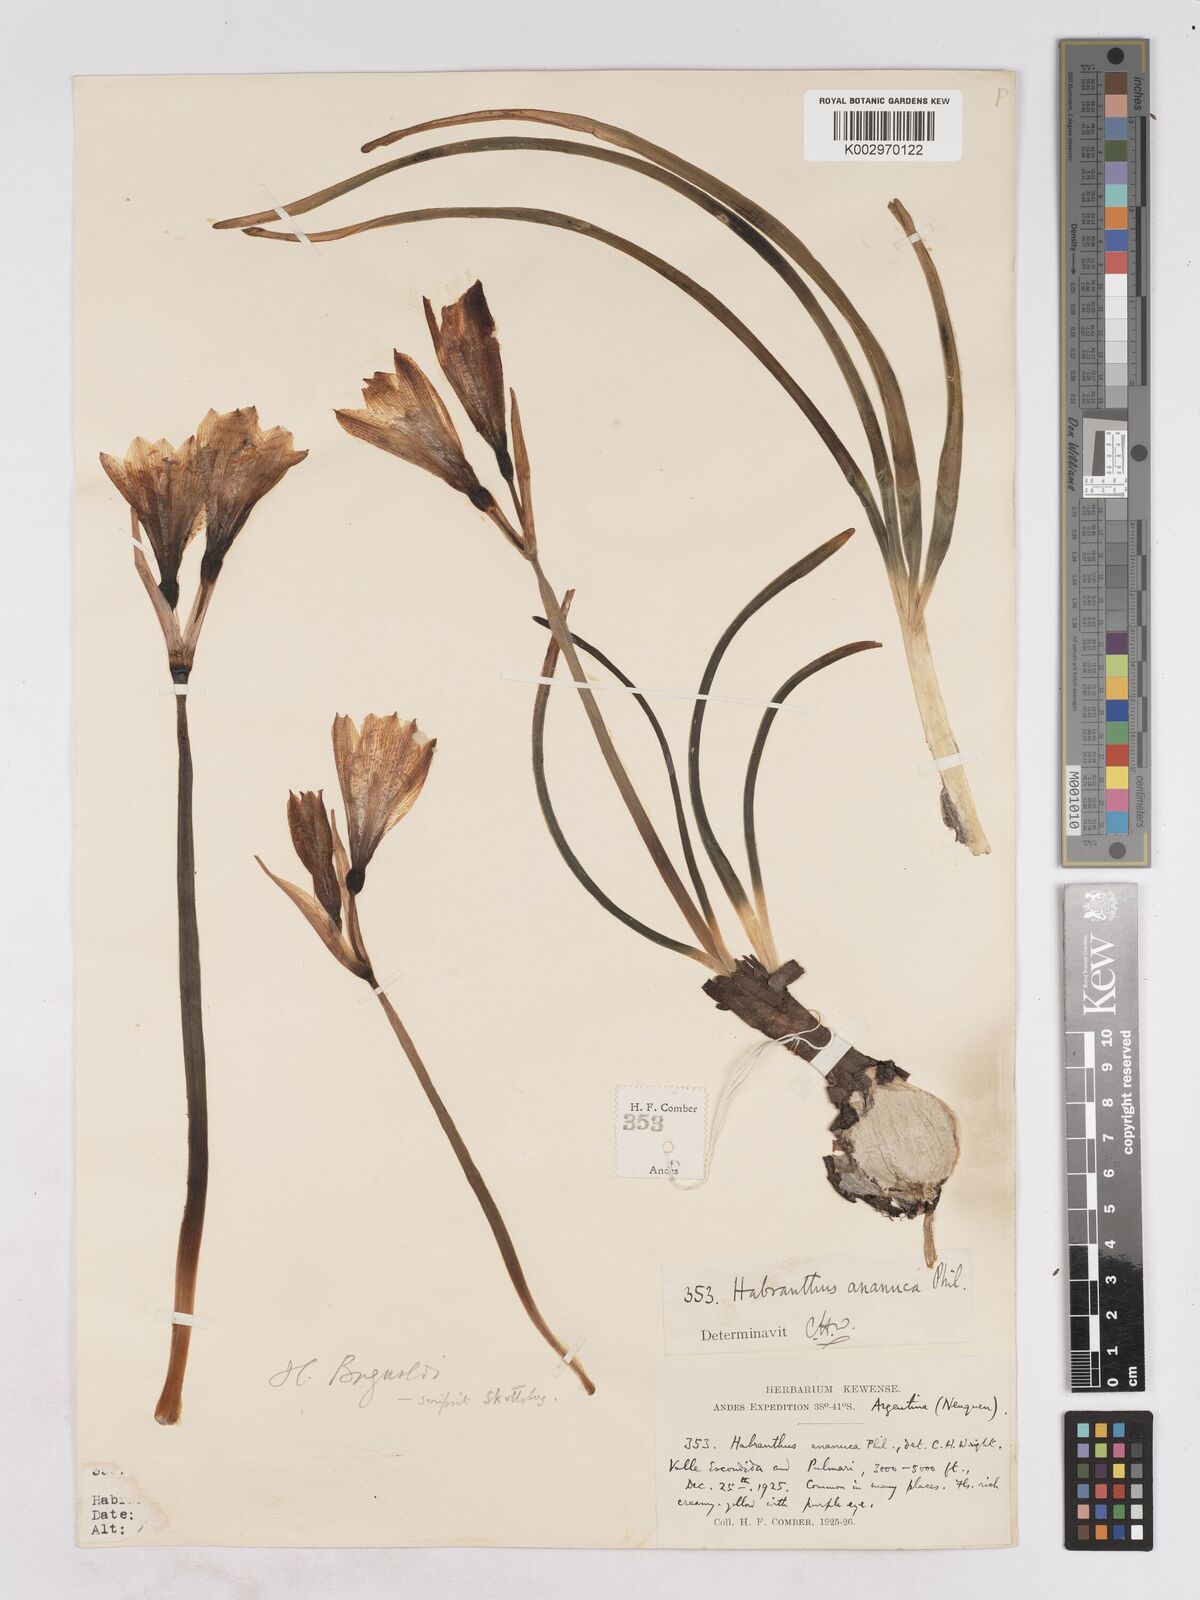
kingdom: Plantae
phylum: Tracheophyta
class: Liliopsida
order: Asparagales
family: Amaryllidaceae
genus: Zephyranthes
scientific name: Zephyranthes bagnoldii
